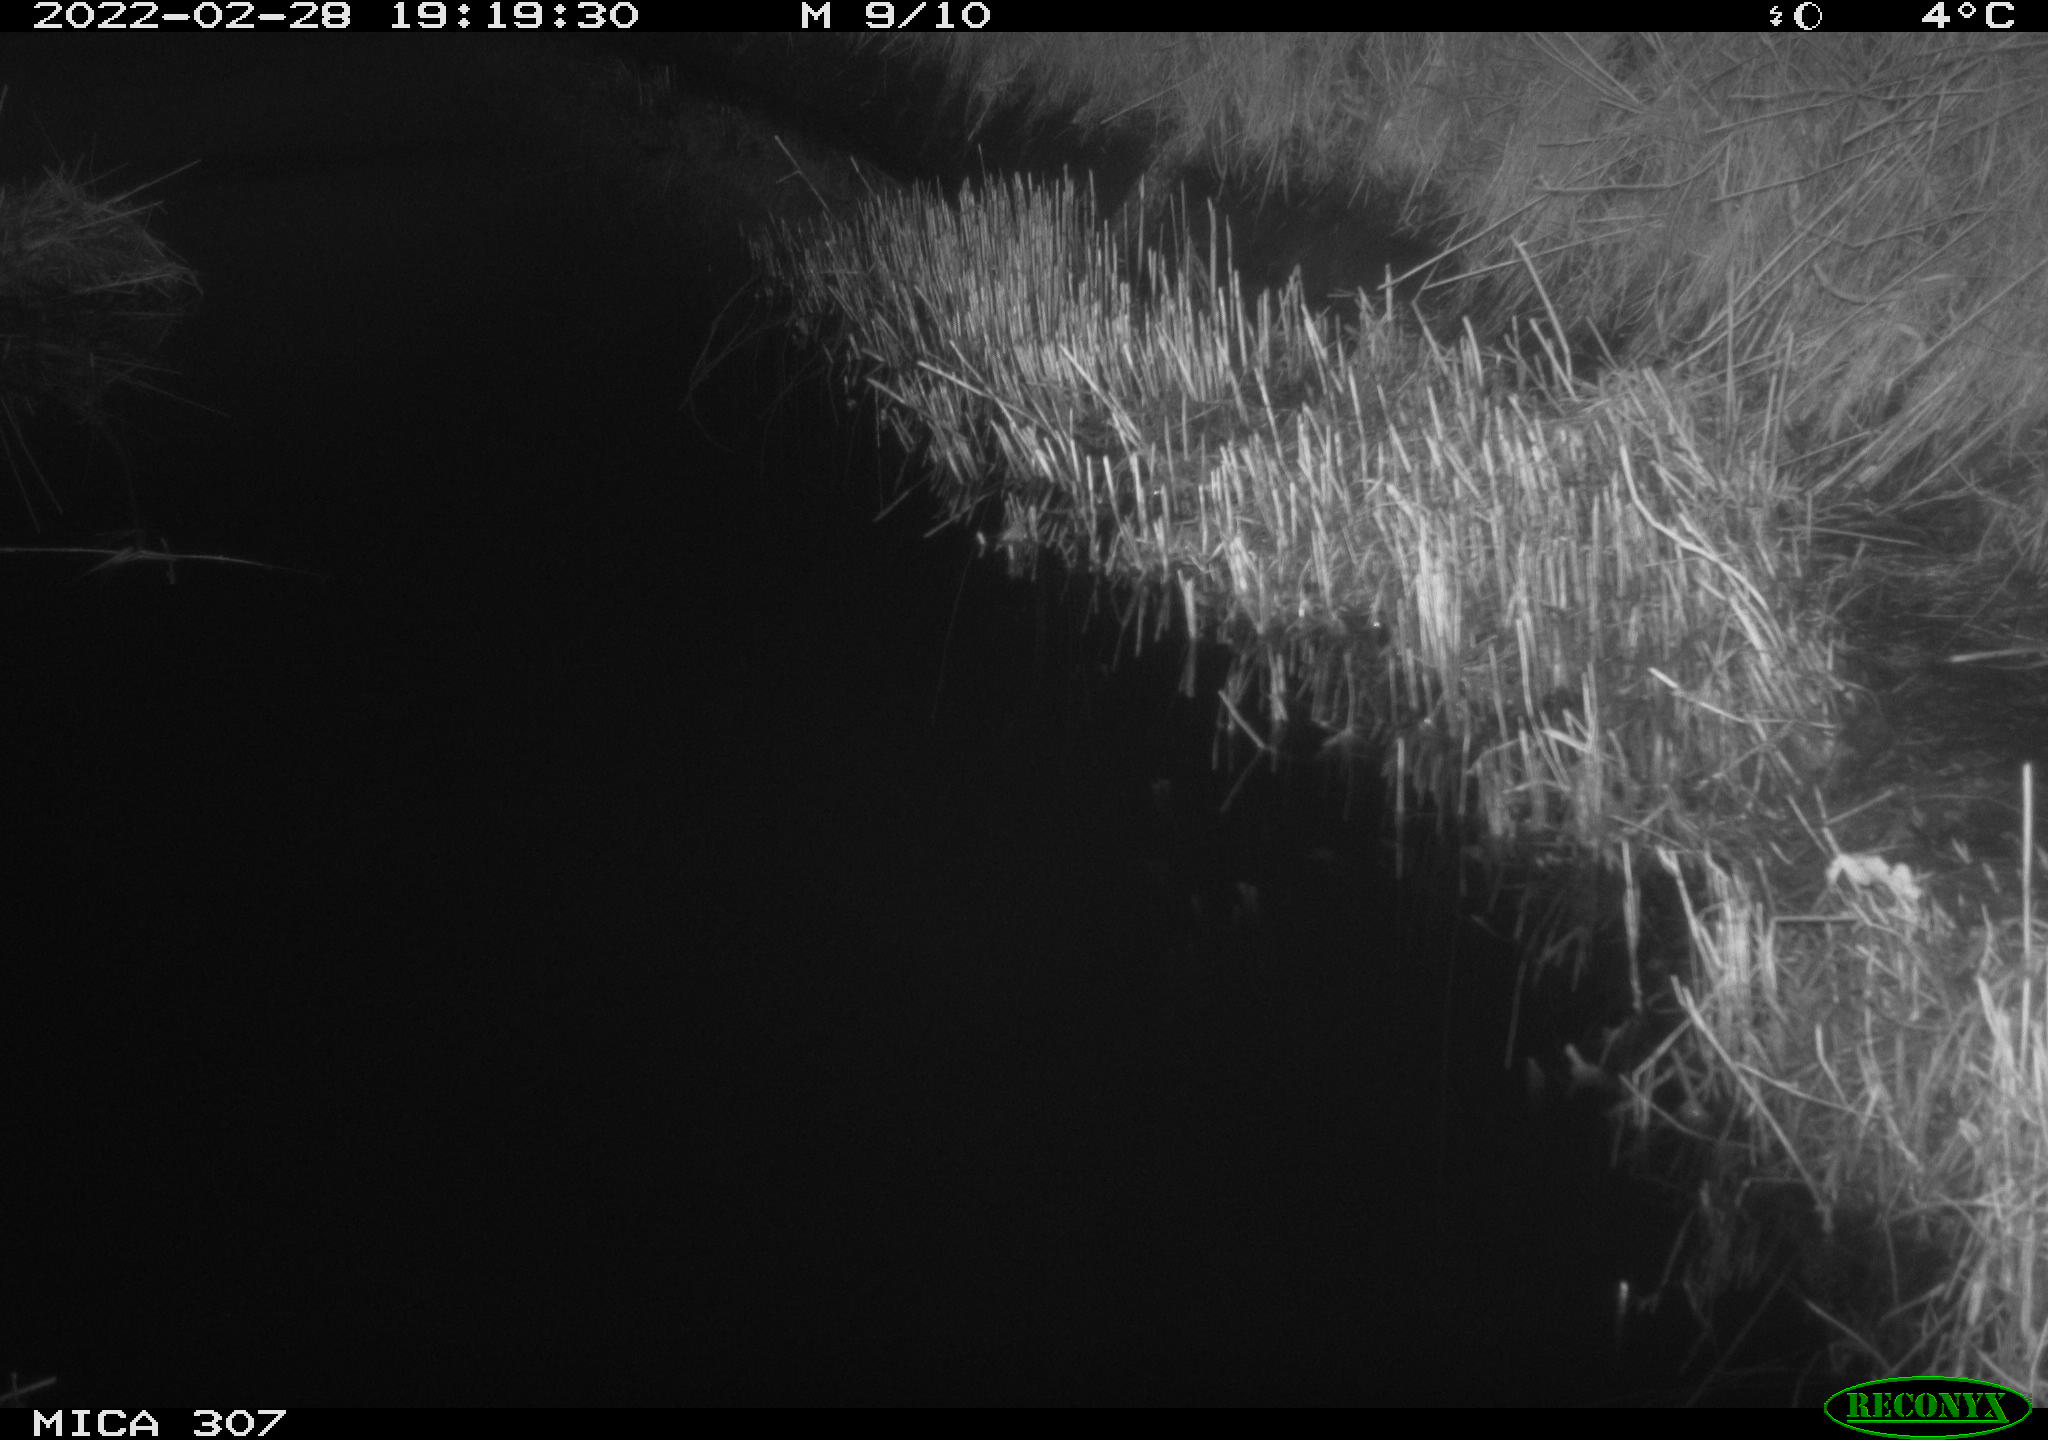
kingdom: Animalia
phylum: Chordata
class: Mammalia
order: Rodentia
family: Muridae
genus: Rattus
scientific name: Rattus norvegicus
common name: Brown rat
